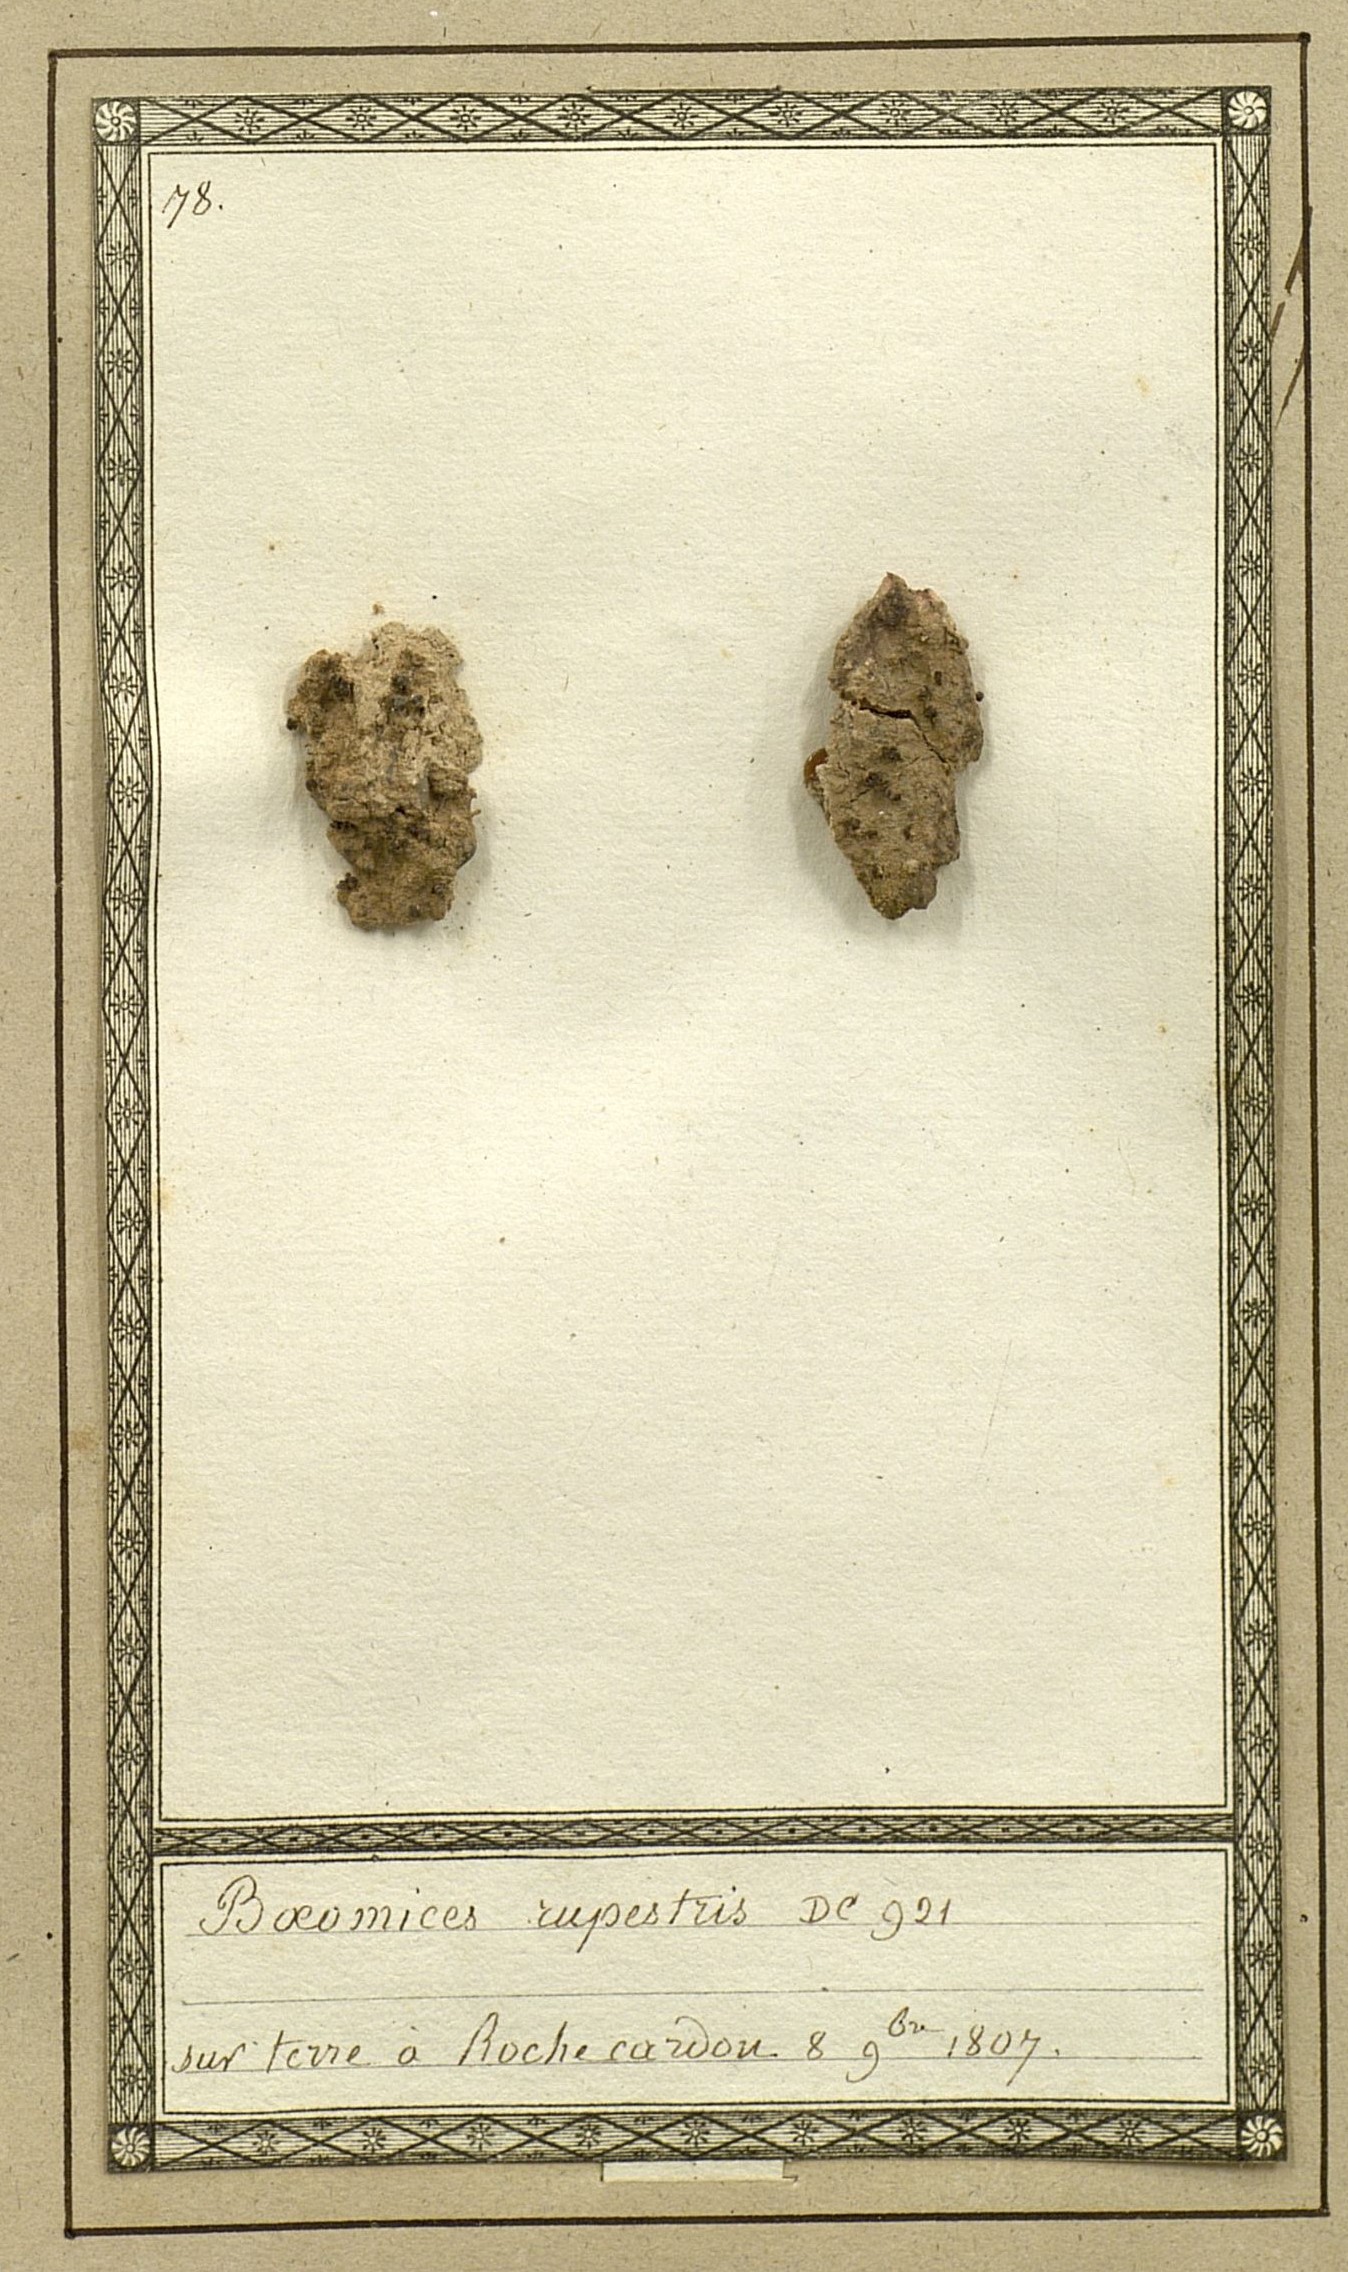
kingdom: Fungi
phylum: Ascomycota
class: Lecanoromycetes
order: Lecideales
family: Lecideaceae
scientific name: Lecideaceae
